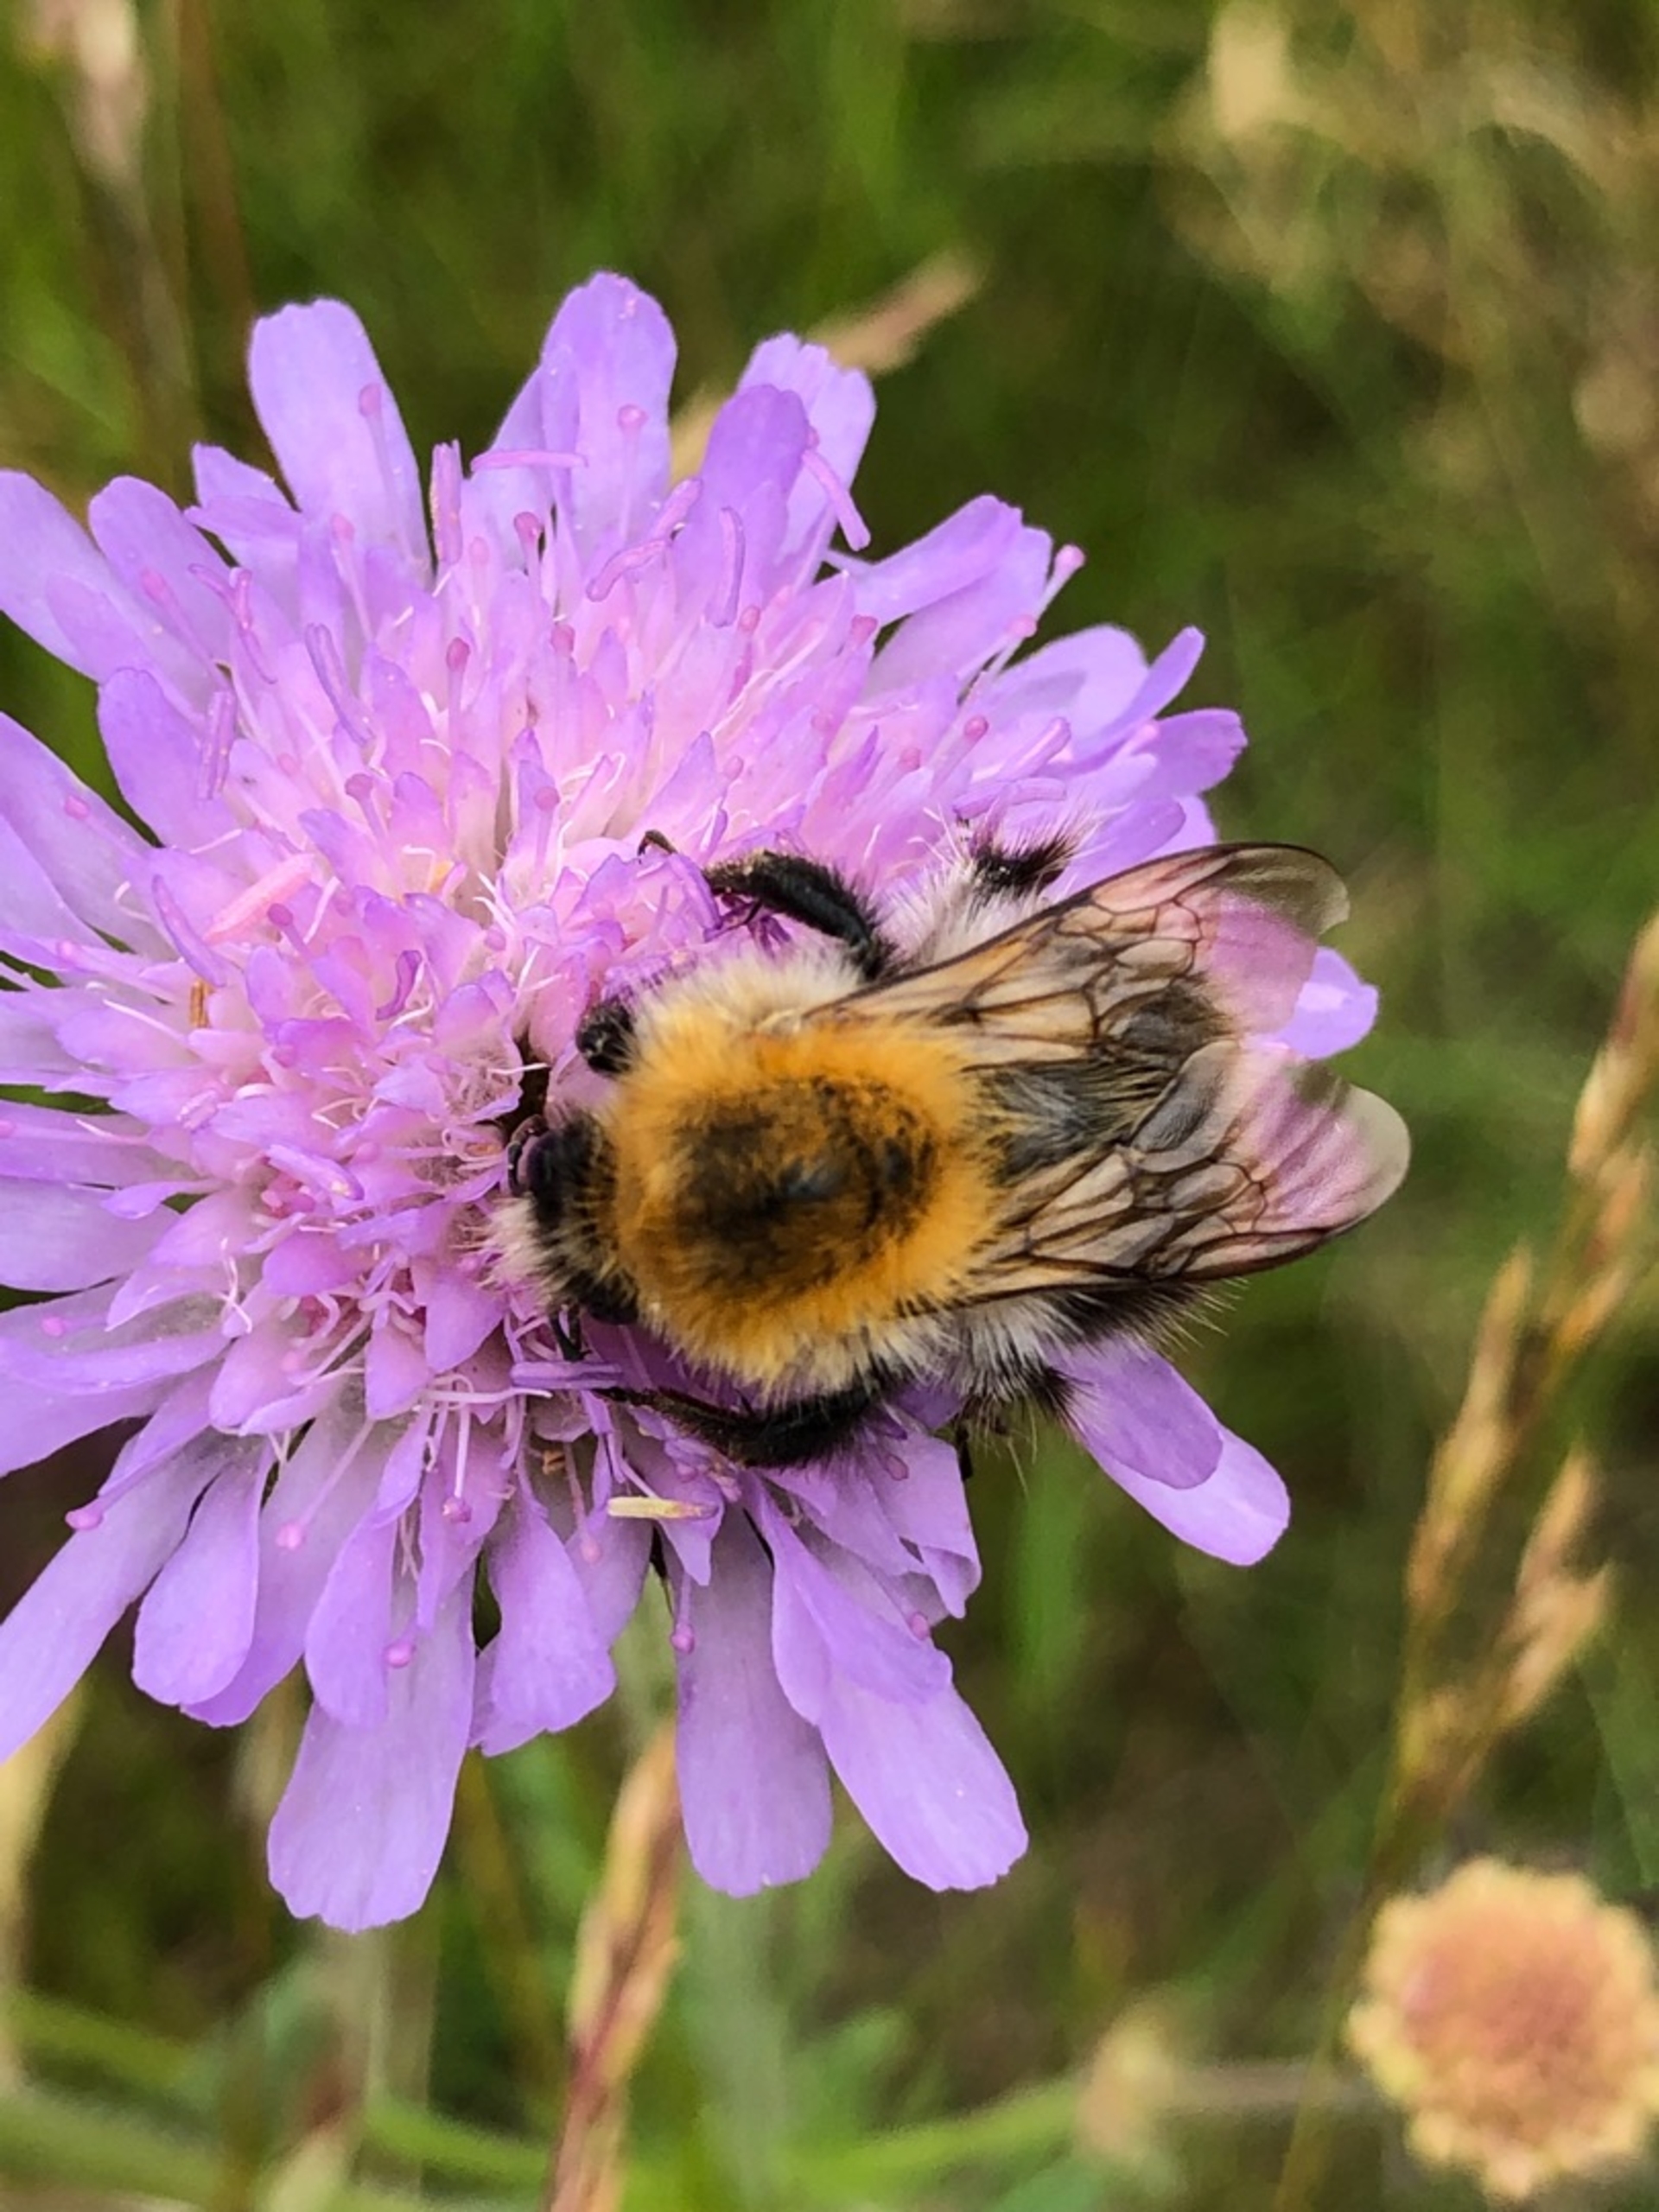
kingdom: Animalia
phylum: Arthropoda
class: Insecta
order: Hymenoptera
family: Apidae
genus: Bombus
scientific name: Bombus pascuorum
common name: Agerhumle
